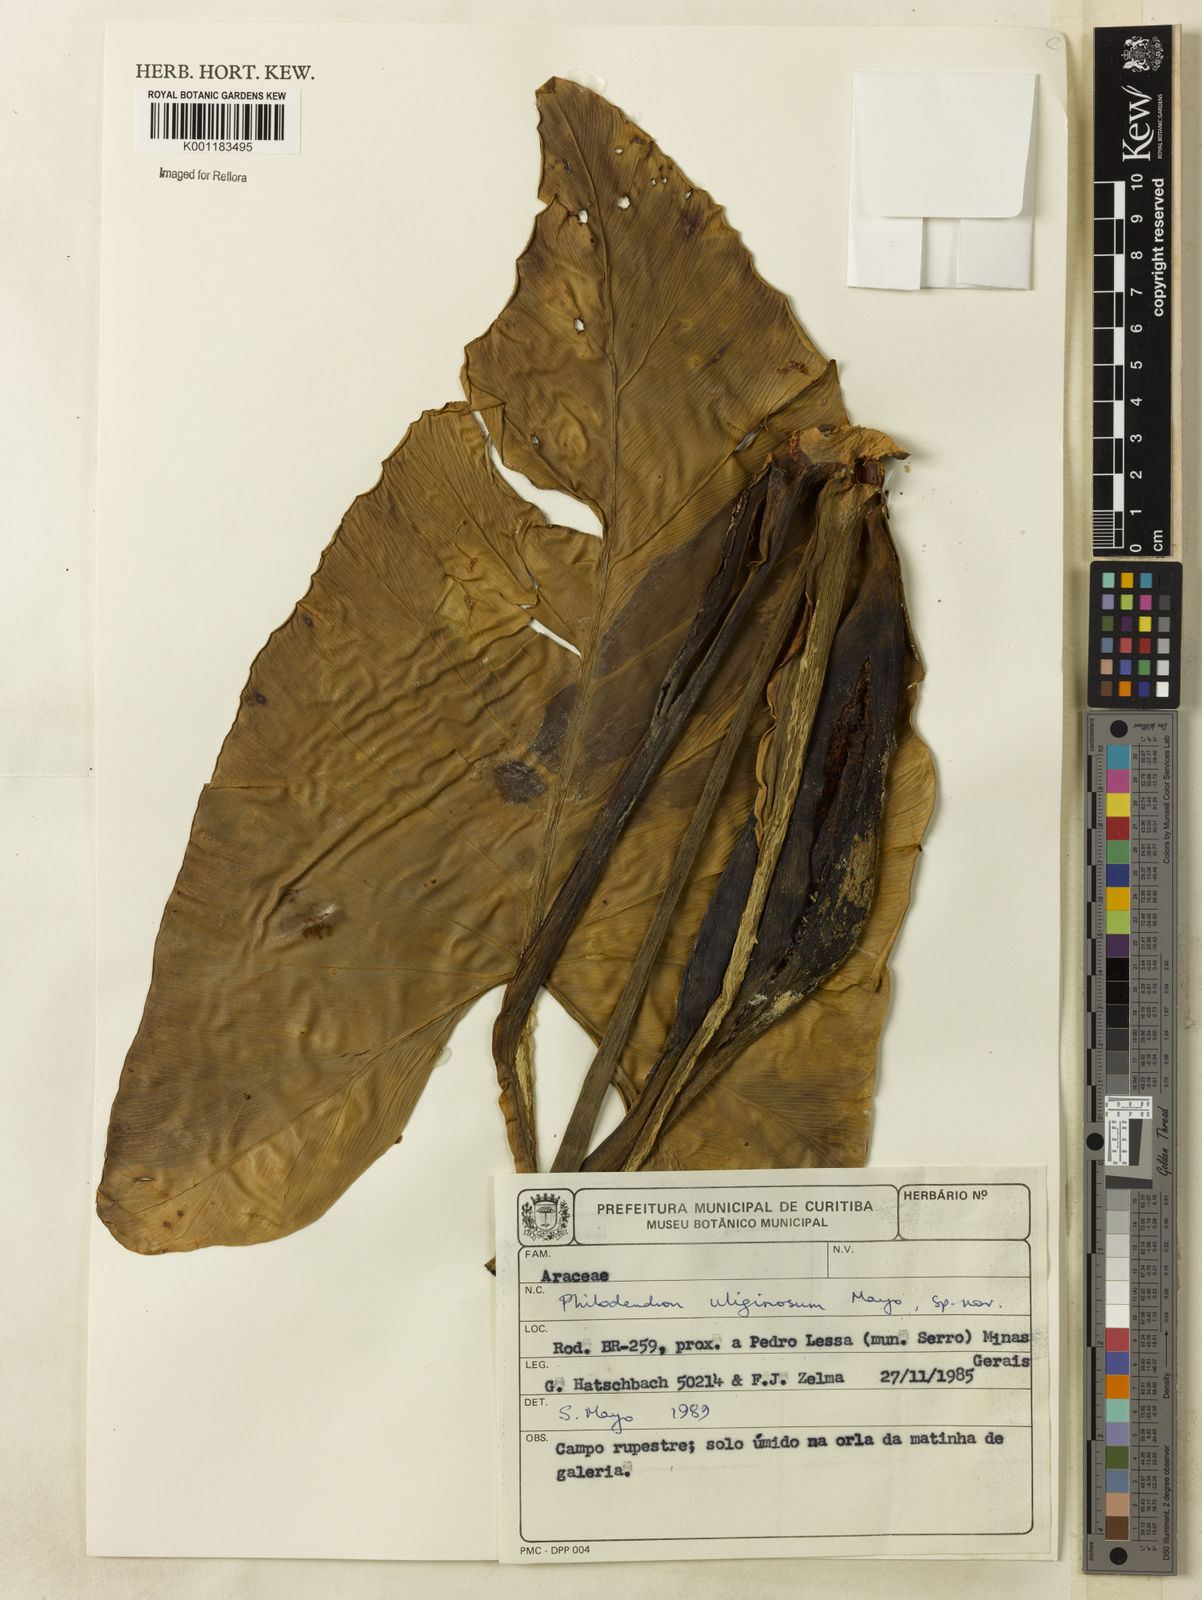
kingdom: Plantae
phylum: Tracheophyta
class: Liliopsida
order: Alismatales
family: Araceae
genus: Thaumatophyllum
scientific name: Thaumatophyllum uliginosum
